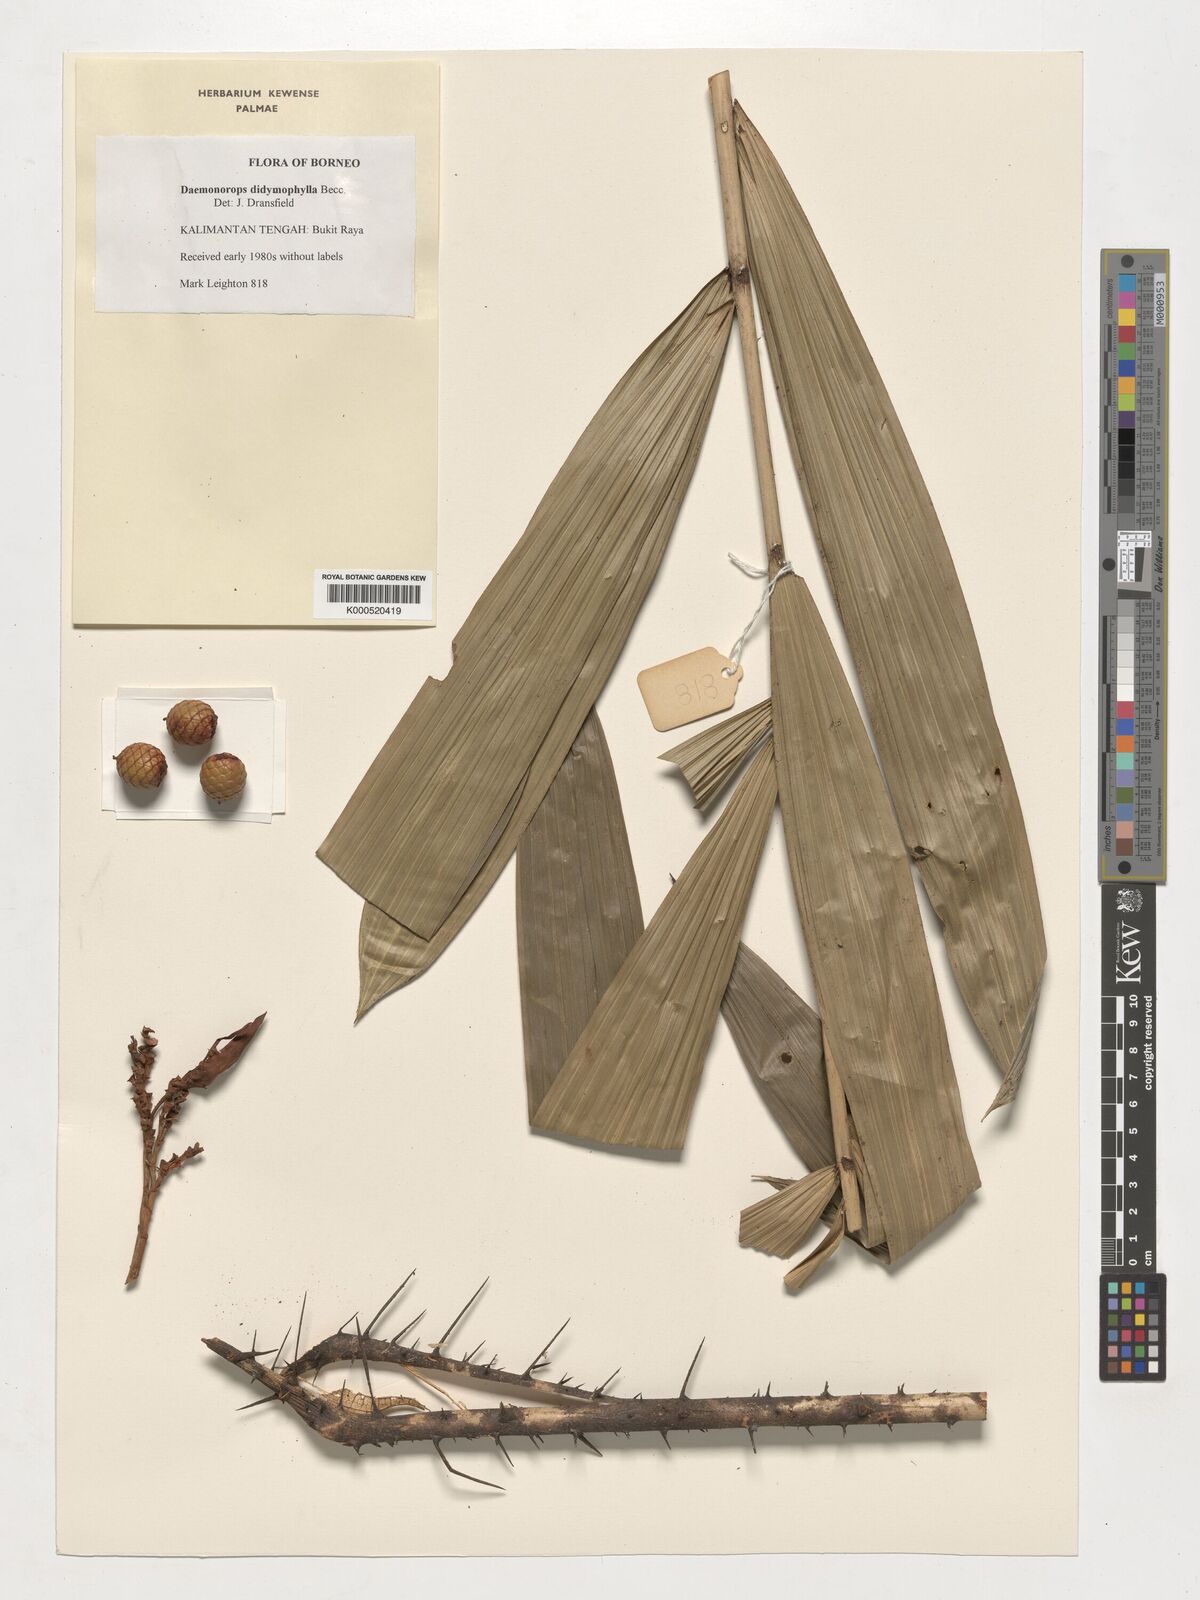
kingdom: Plantae
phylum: Tracheophyta
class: Liliopsida
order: Arecales
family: Arecaceae
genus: Calamus
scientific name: Calamus gracilipes
